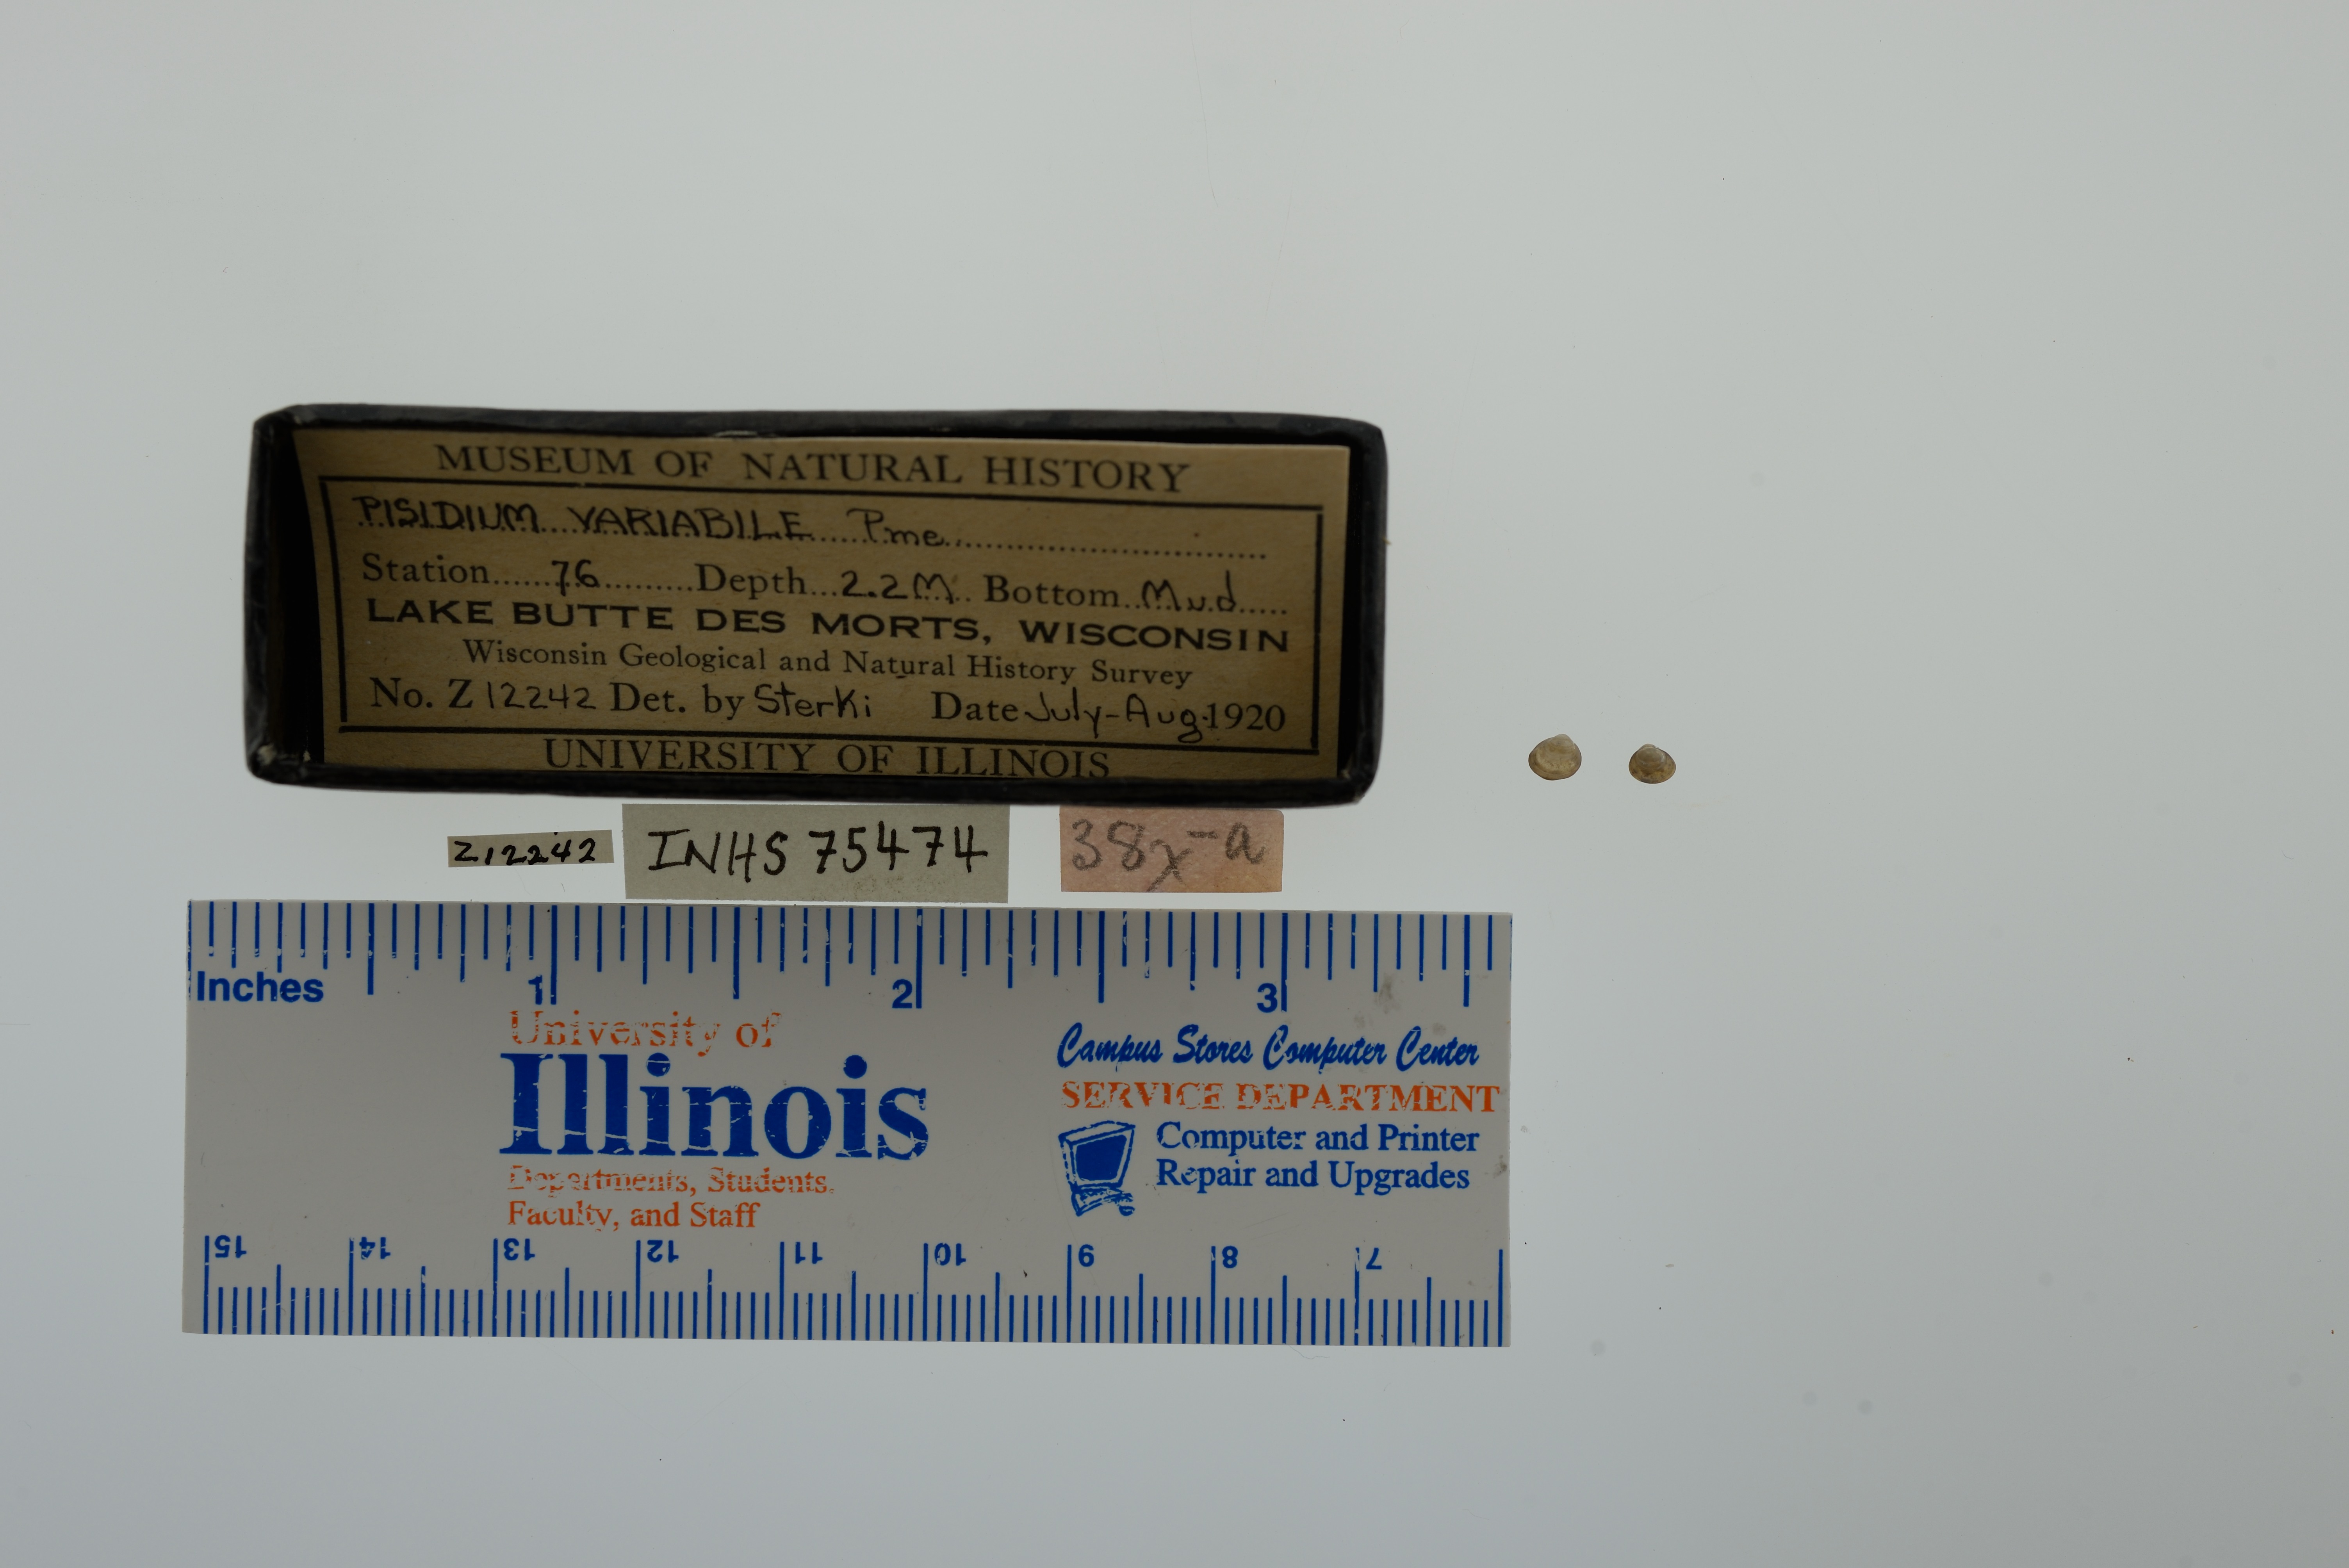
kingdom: Animalia
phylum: Mollusca
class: Bivalvia
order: Sphaeriida
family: Sphaeriidae
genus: Euglesa
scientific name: Euglesa variabilis
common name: Triangular peaclam
